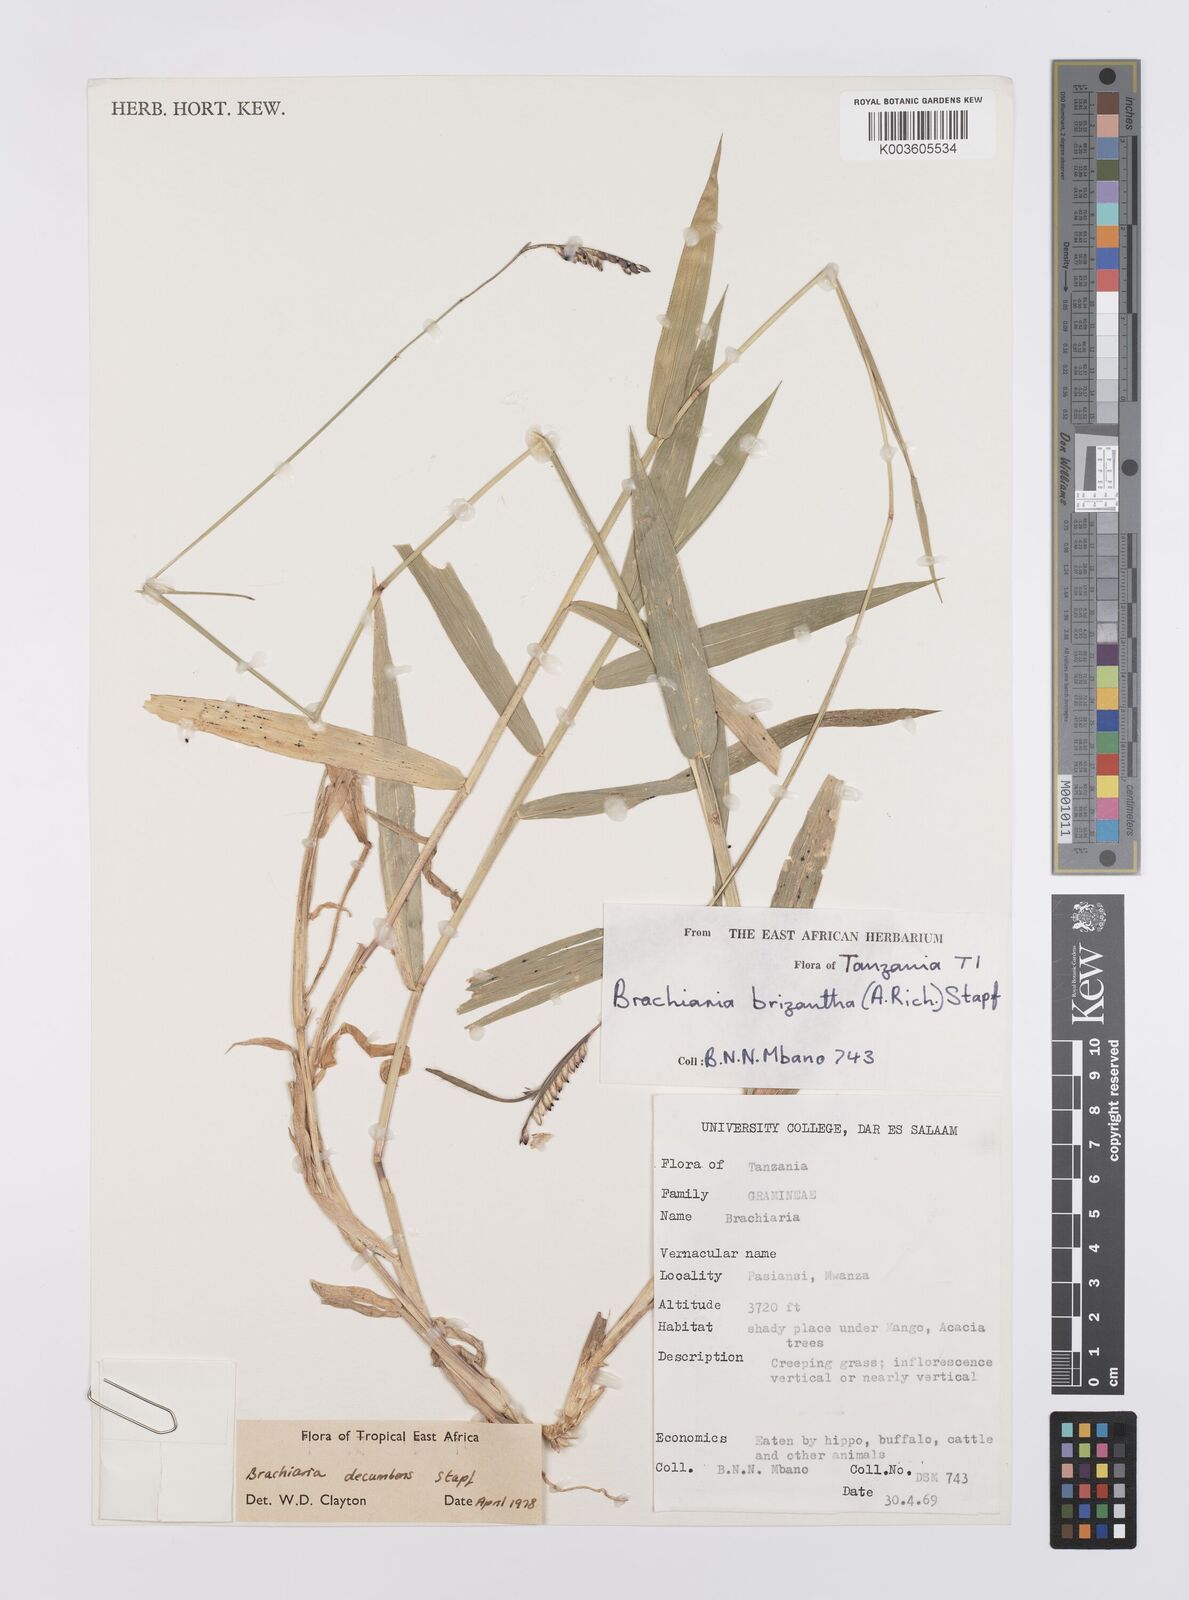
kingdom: Plantae
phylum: Tracheophyta
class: Liliopsida
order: Poales
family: Poaceae
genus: Urochloa
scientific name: Urochloa eminii
